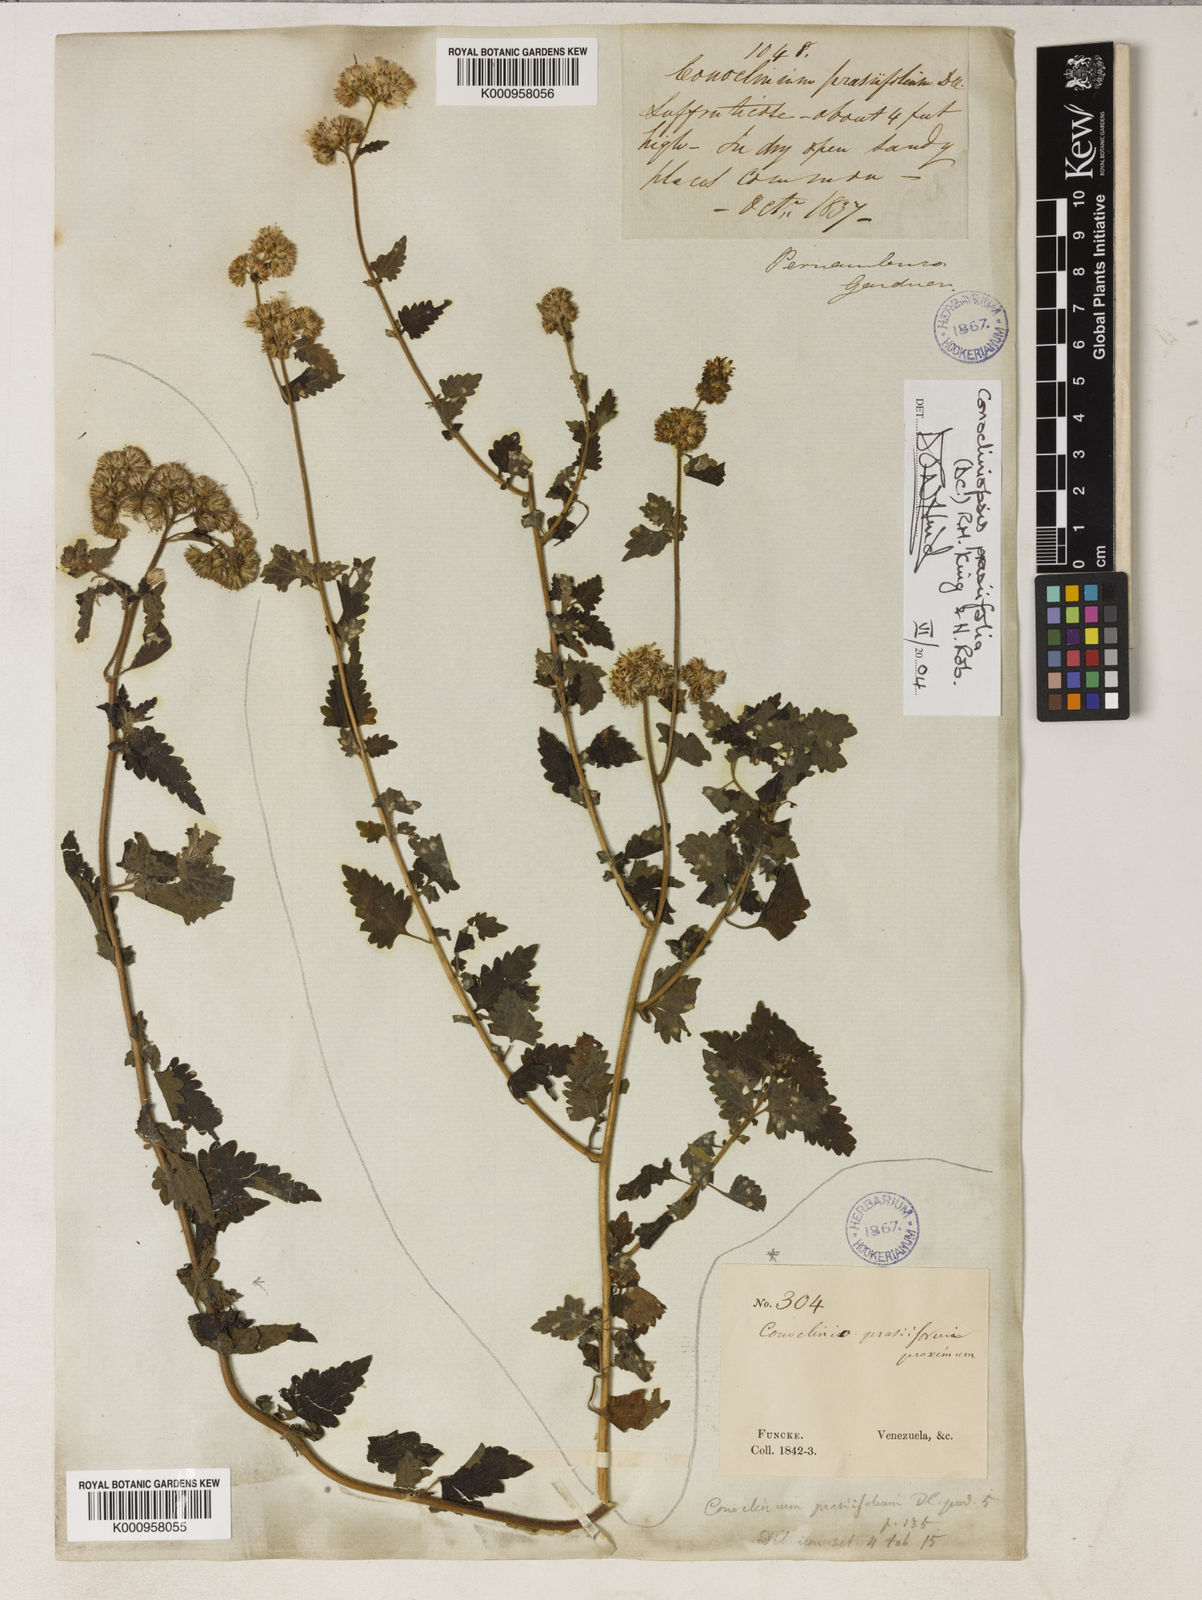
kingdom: Plantae
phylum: Tracheophyta
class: Magnoliopsida
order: Asterales
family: Asteraceae
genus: Conocliniopsis
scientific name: Conocliniopsis grossedentata
